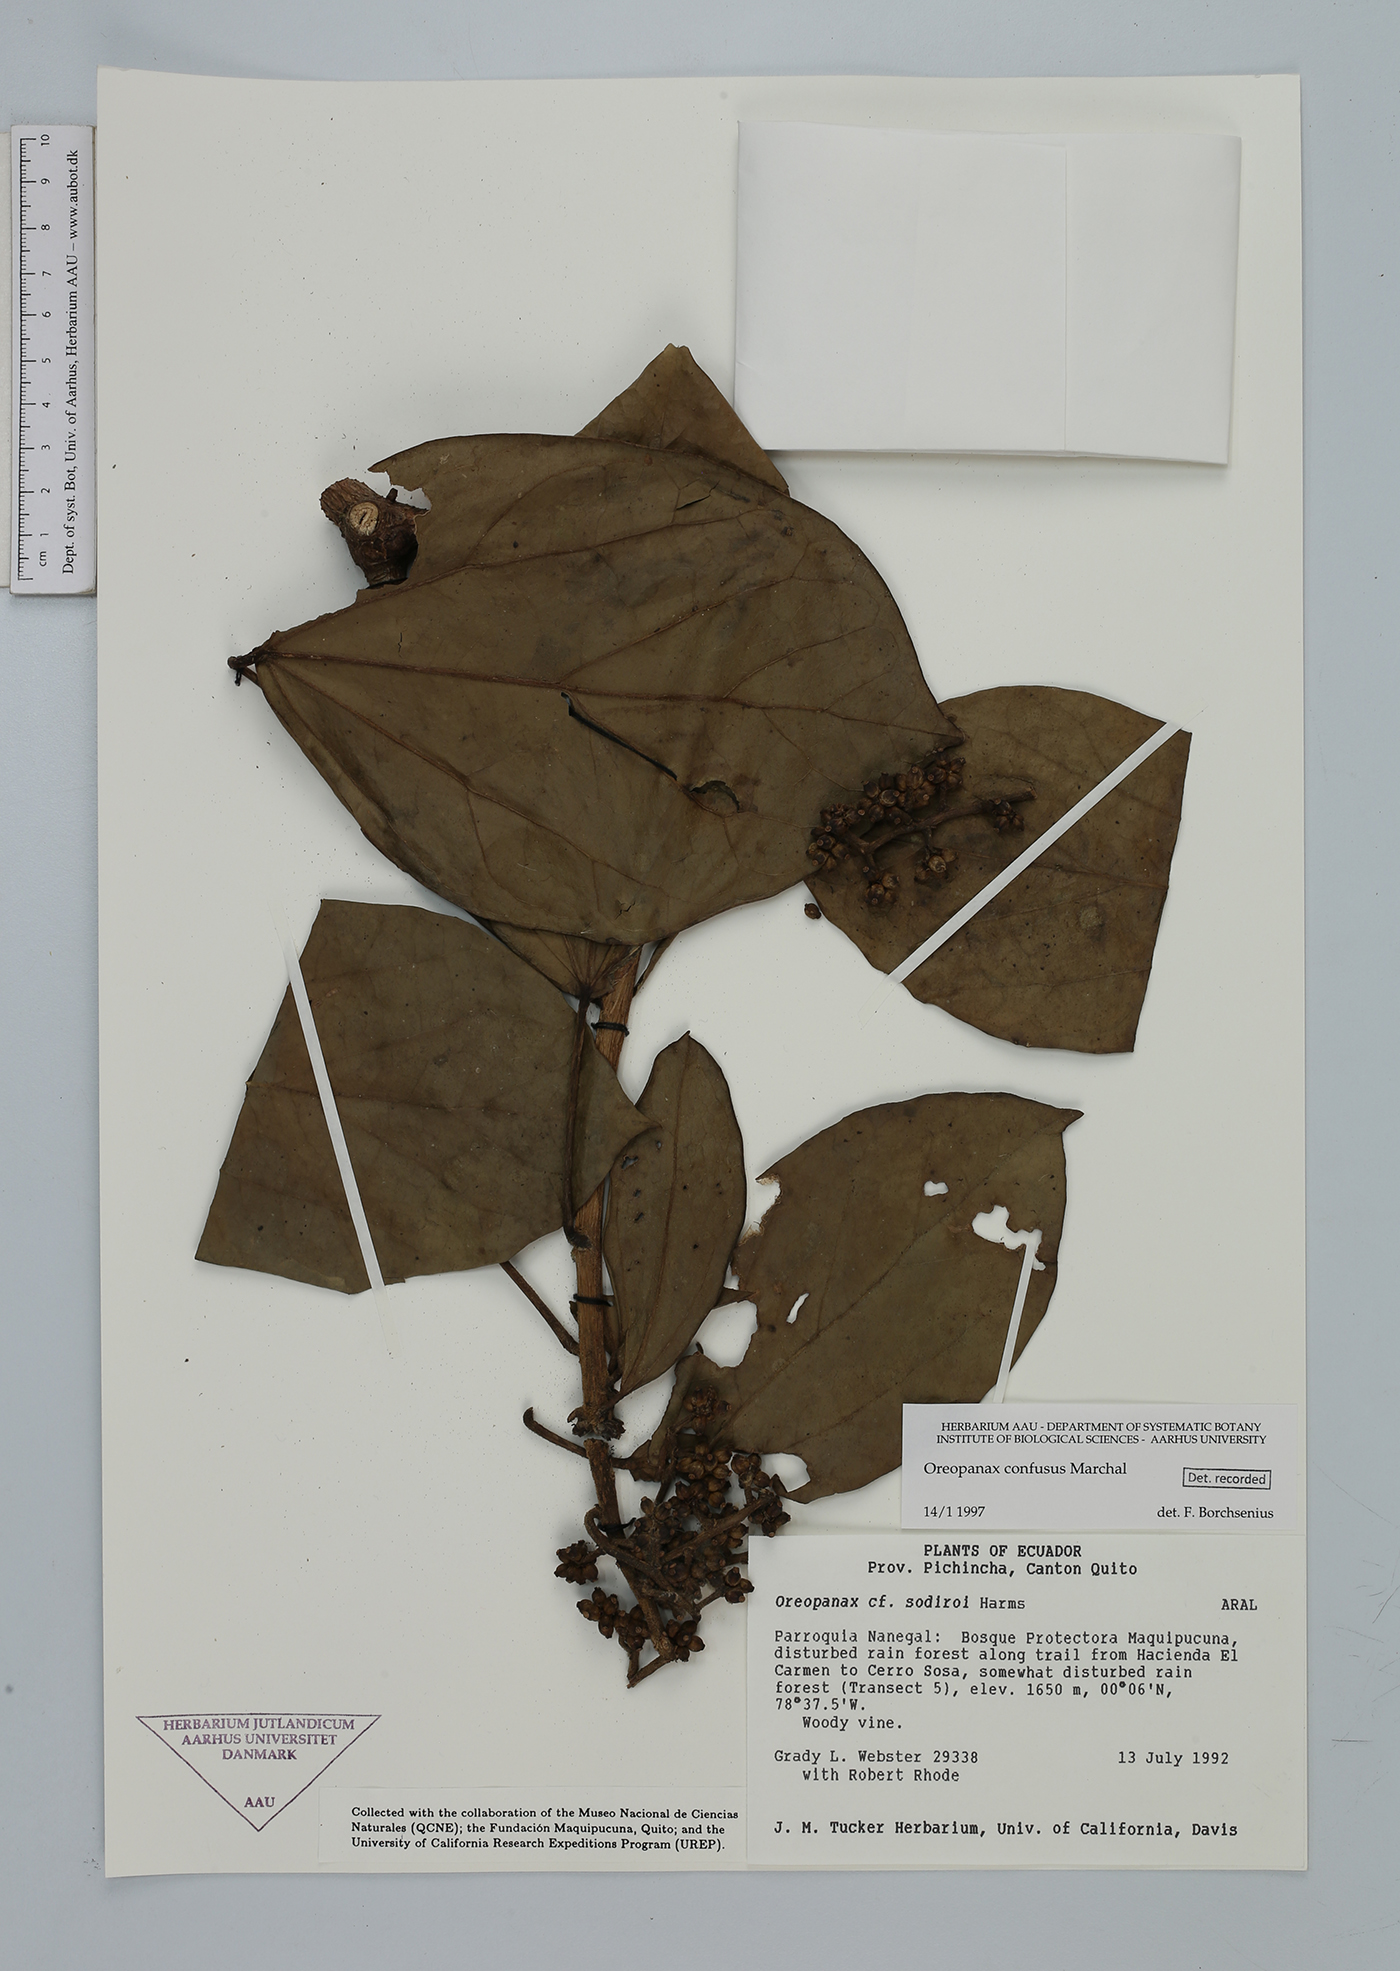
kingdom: Plantae
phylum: Tracheophyta
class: Magnoliopsida
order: Apiales
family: Araliaceae
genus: Oreopanax
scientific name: Oreopanax confusus
